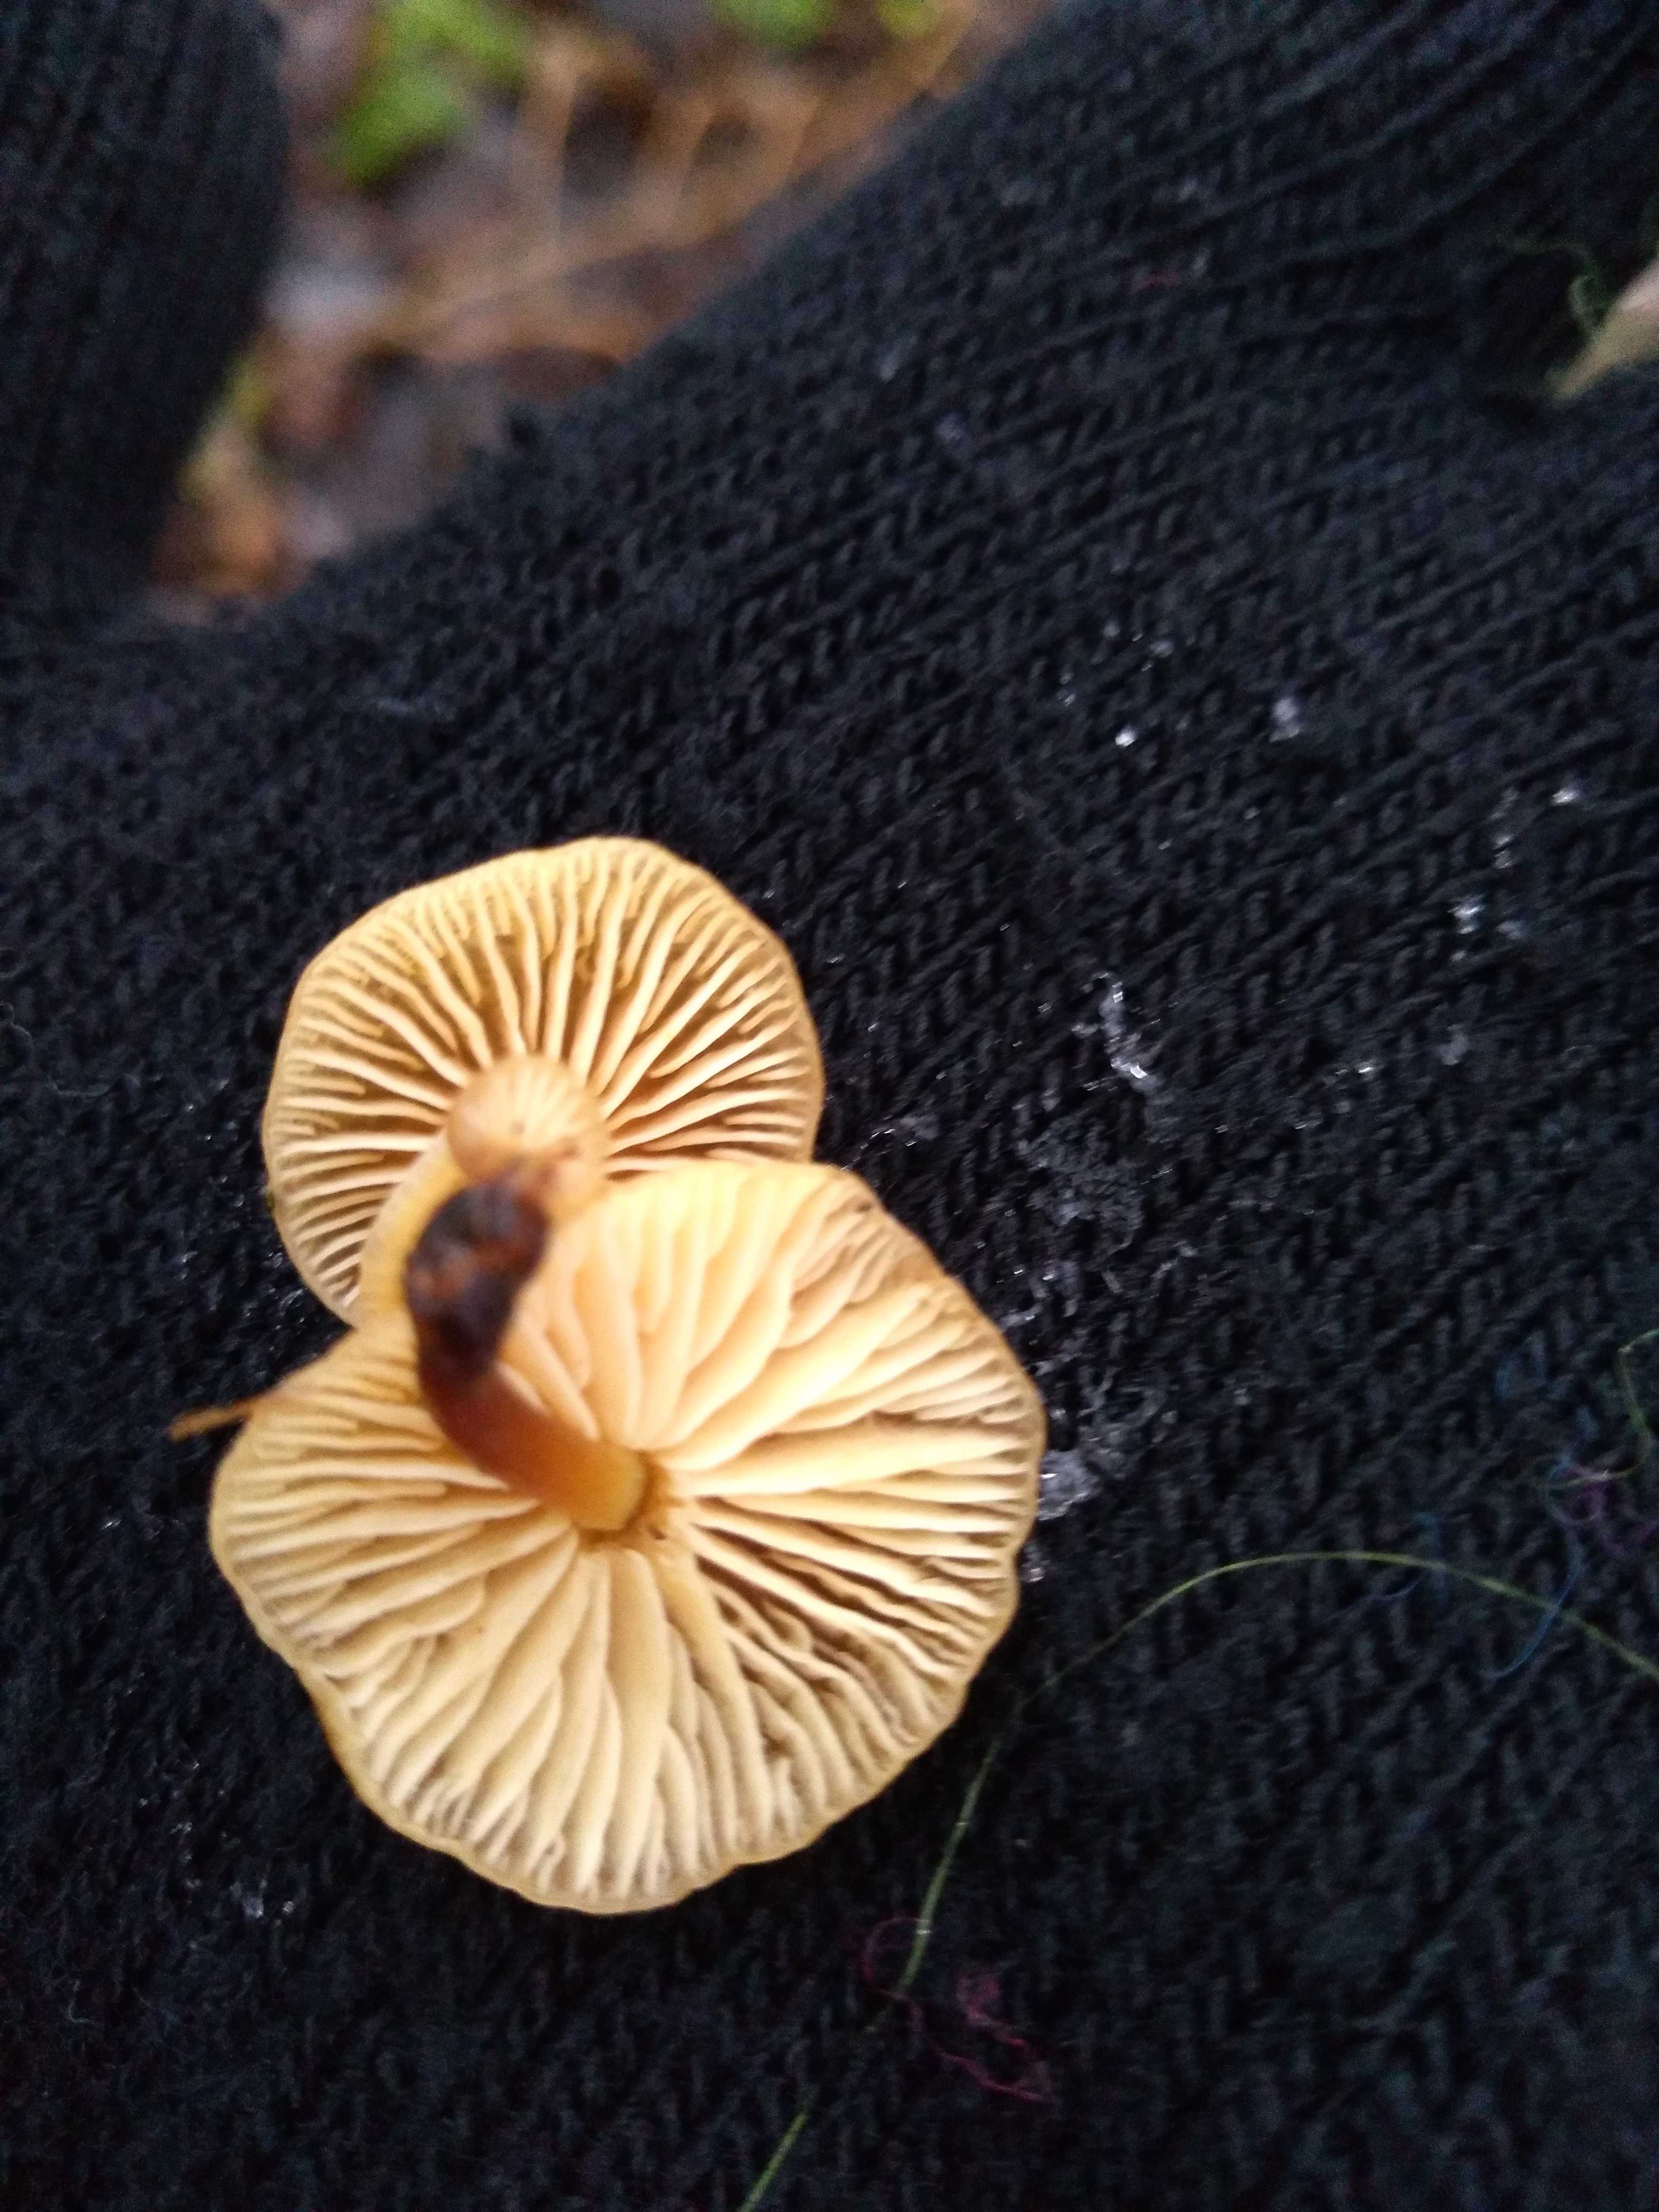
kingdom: Fungi
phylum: Basidiomycota
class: Agaricomycetes
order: Agaricales
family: Physalacriaceae
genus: Flammulina
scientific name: Flammulina
